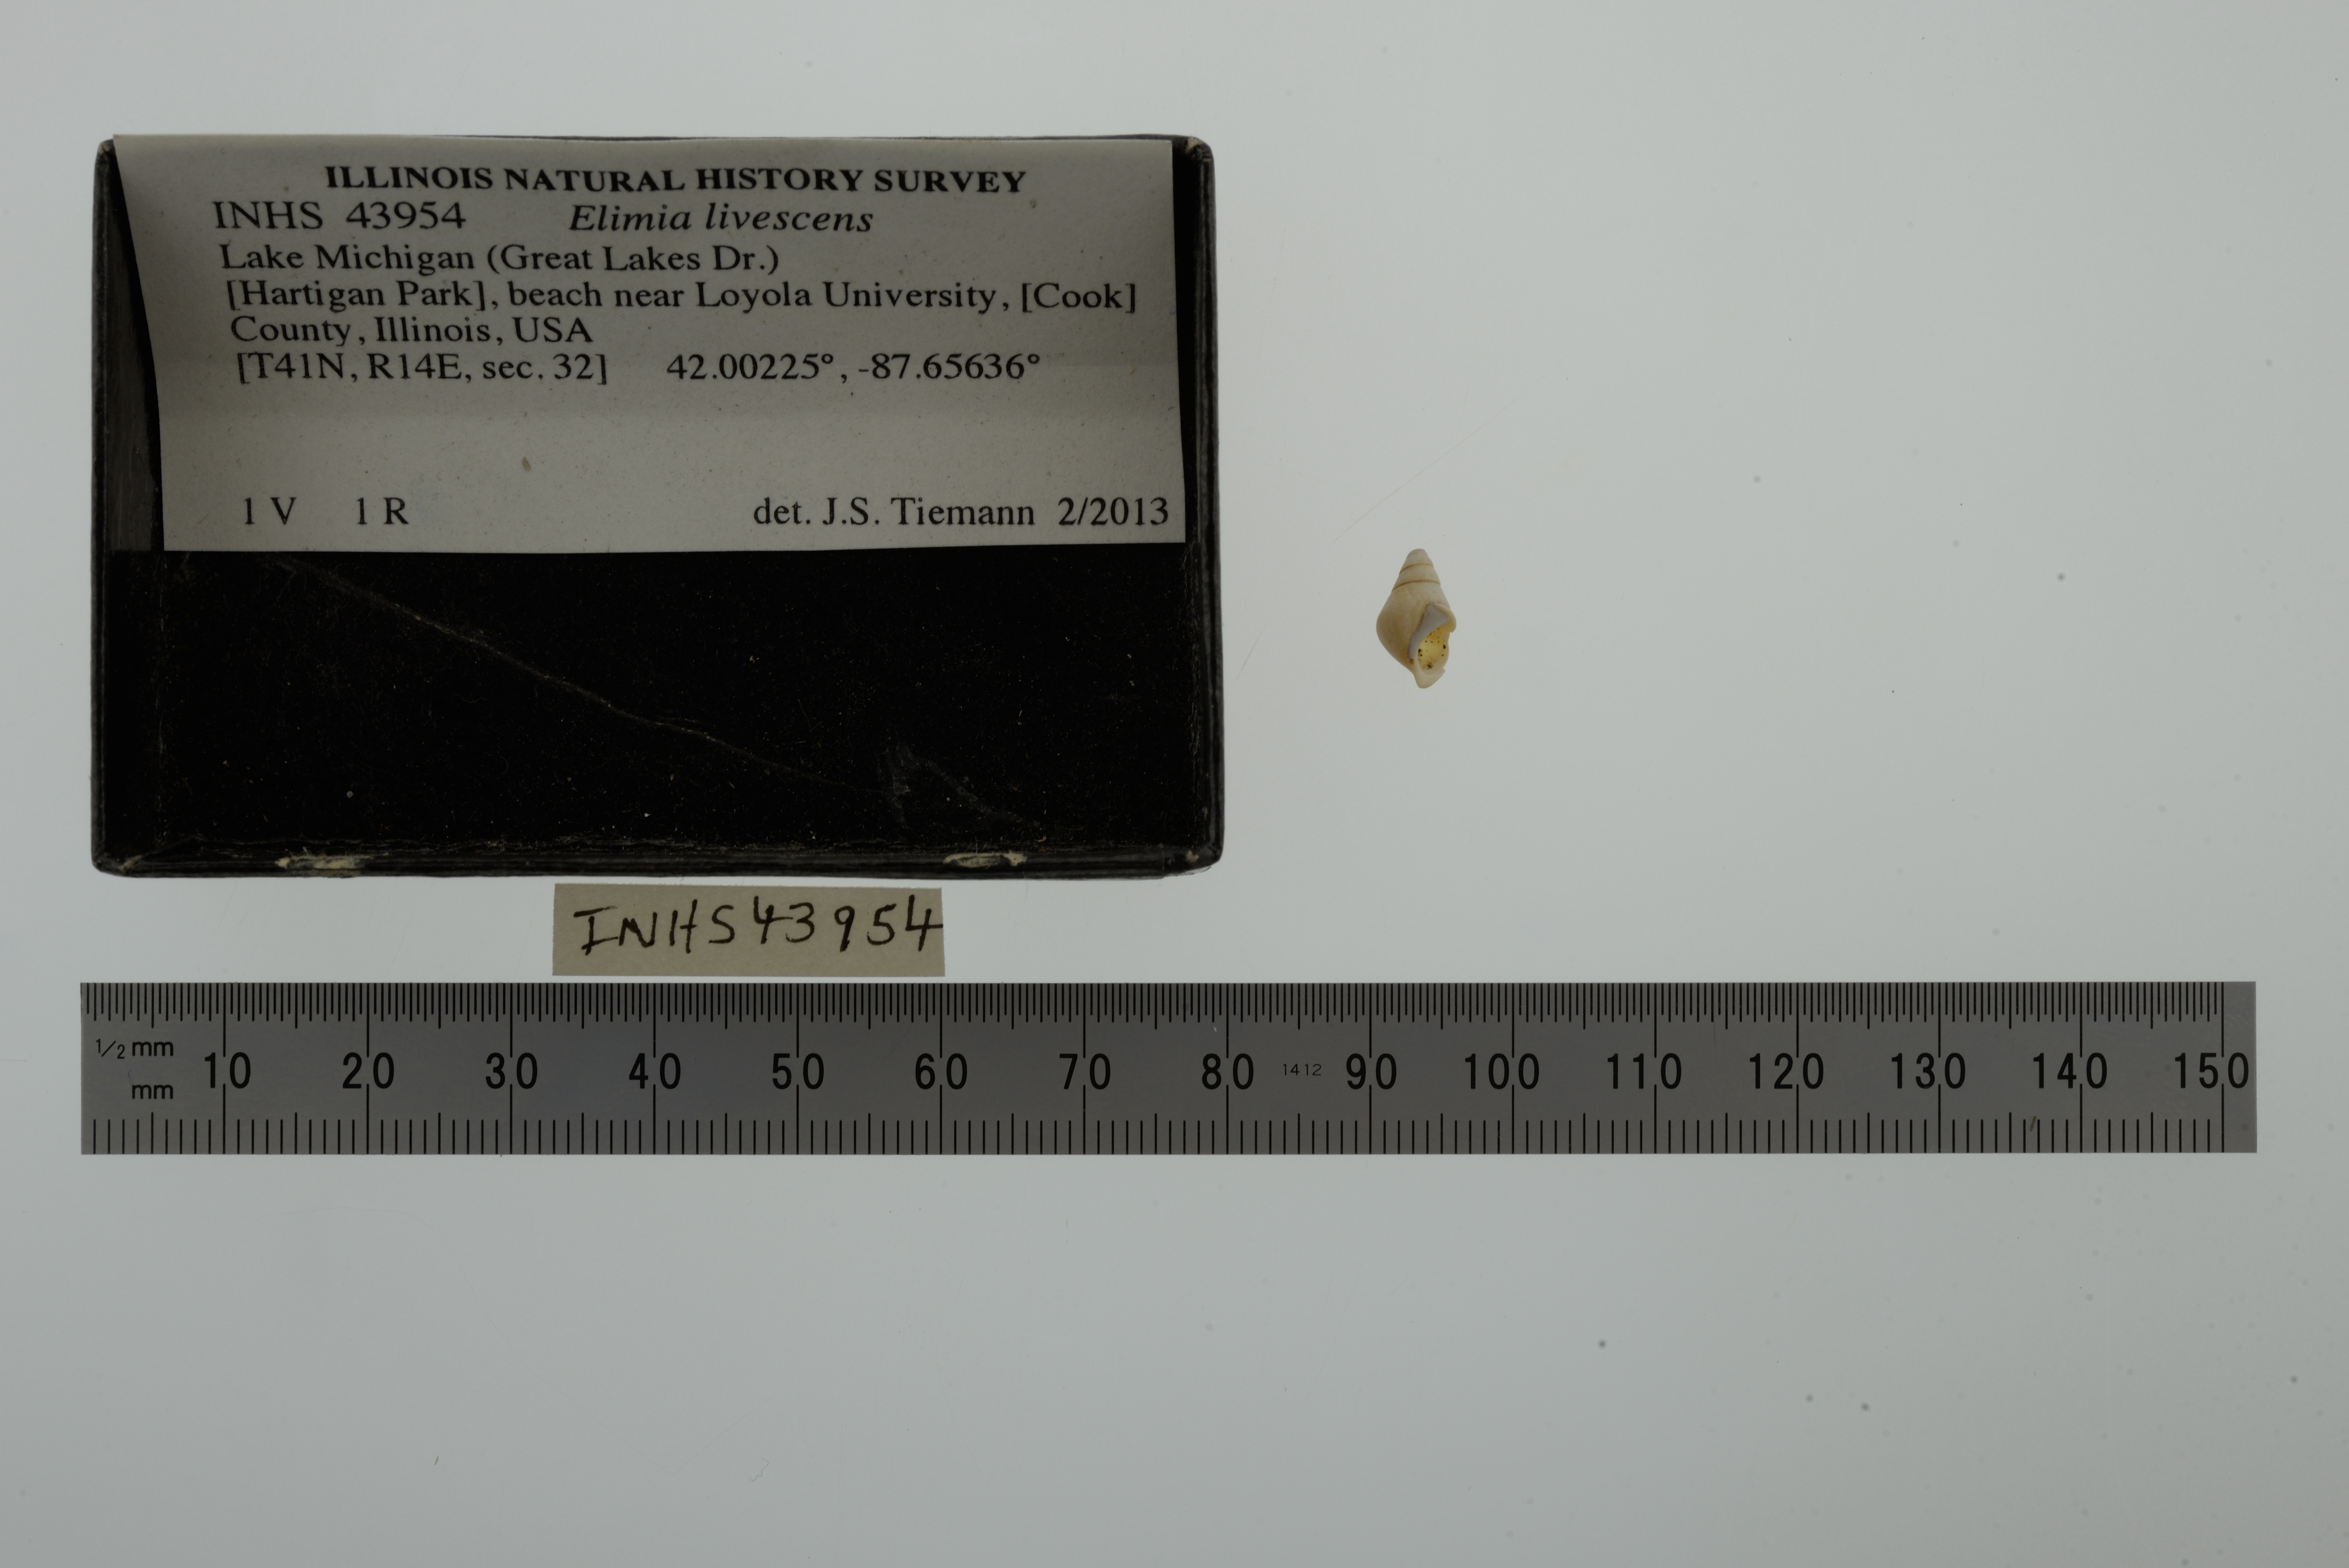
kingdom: Animalia
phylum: Mollusca
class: Gastropoda
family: Pleuroceridae
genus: Elimia
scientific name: Elimia livescens
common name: Liver elimia
